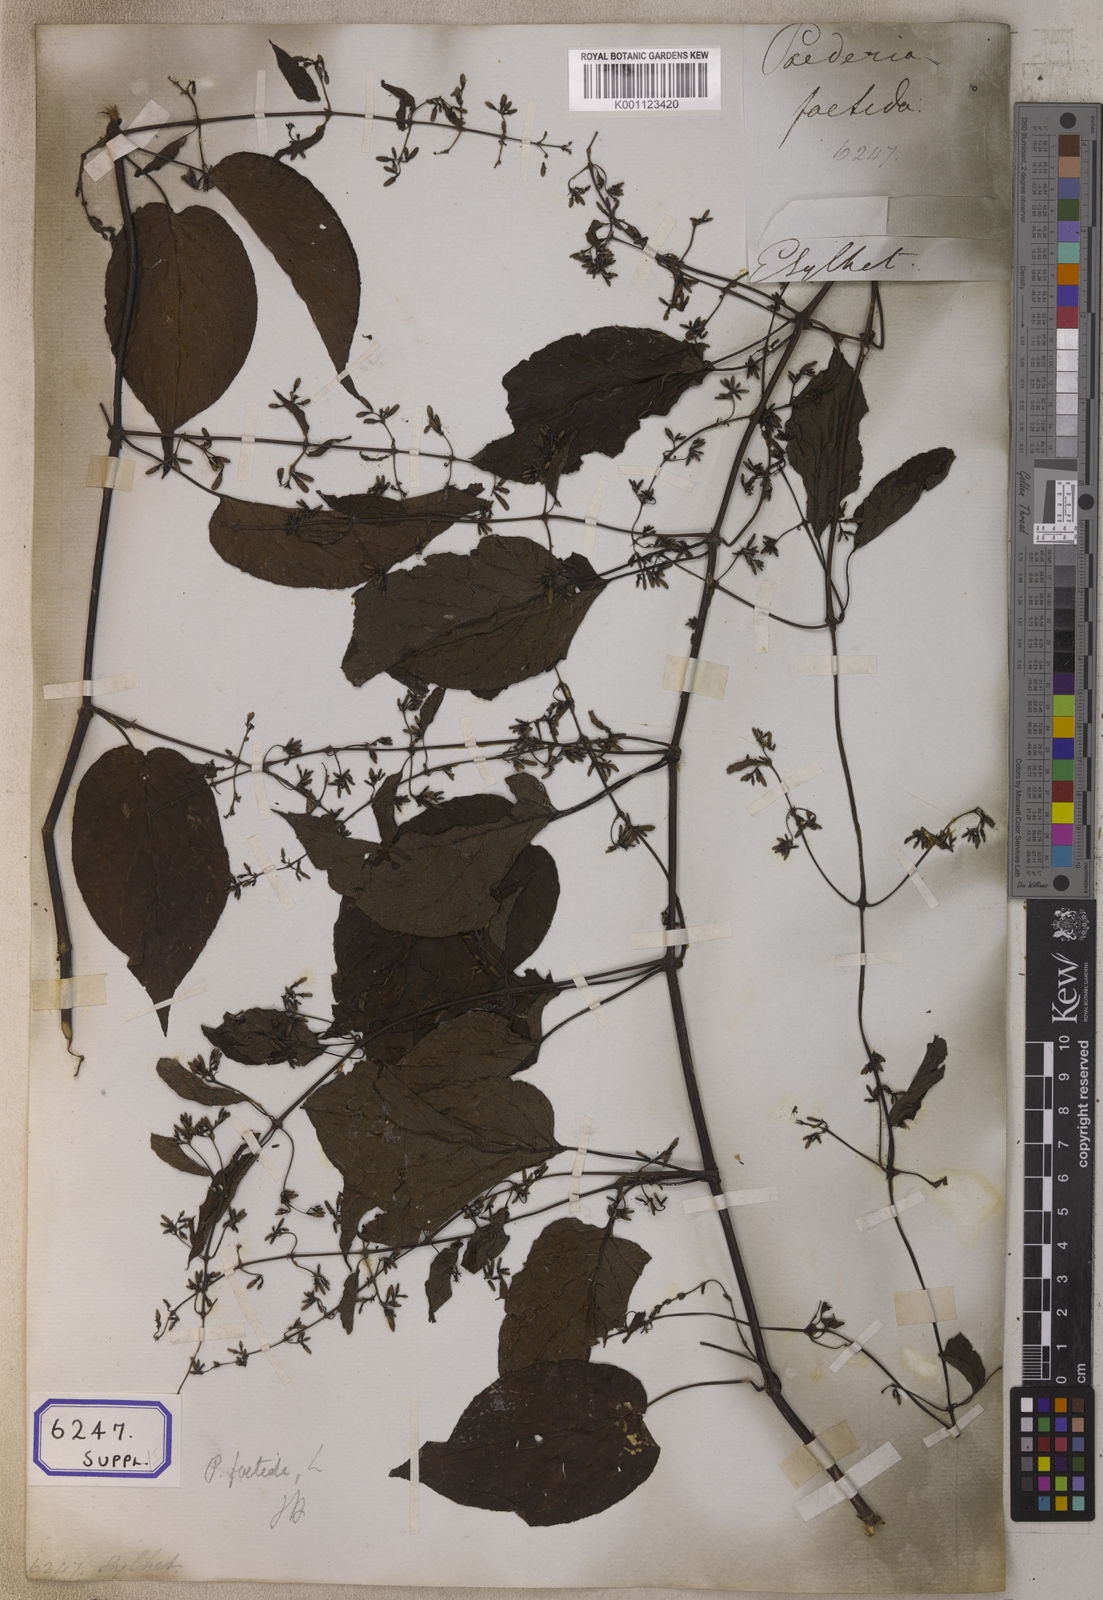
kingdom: Plantae
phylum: Tracheophyta
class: Magnoliopsida
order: Gentianales
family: Rubiaceae
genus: Paederia
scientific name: Paederia
